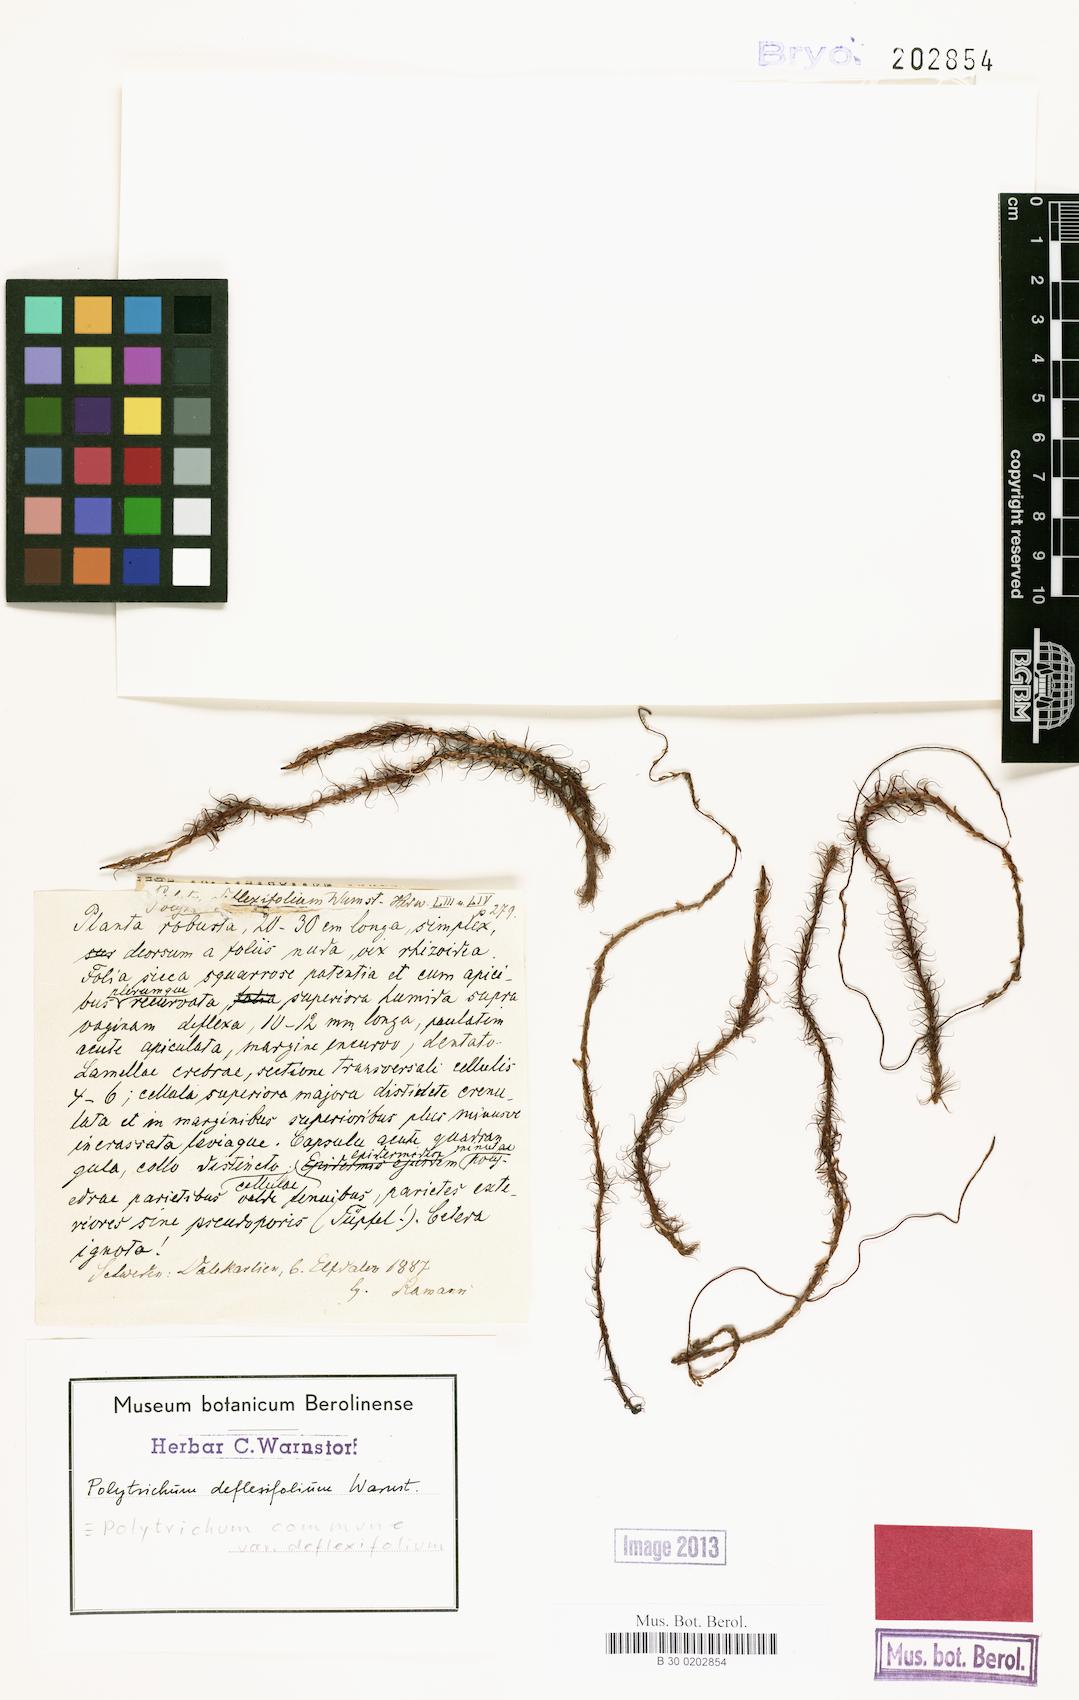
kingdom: Plantae
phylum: Bryophyta
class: Polytrichopsida
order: Polytrichales
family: Polytrichaceae
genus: Polytrichum
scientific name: Polytrichum commune
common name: Common haircap
